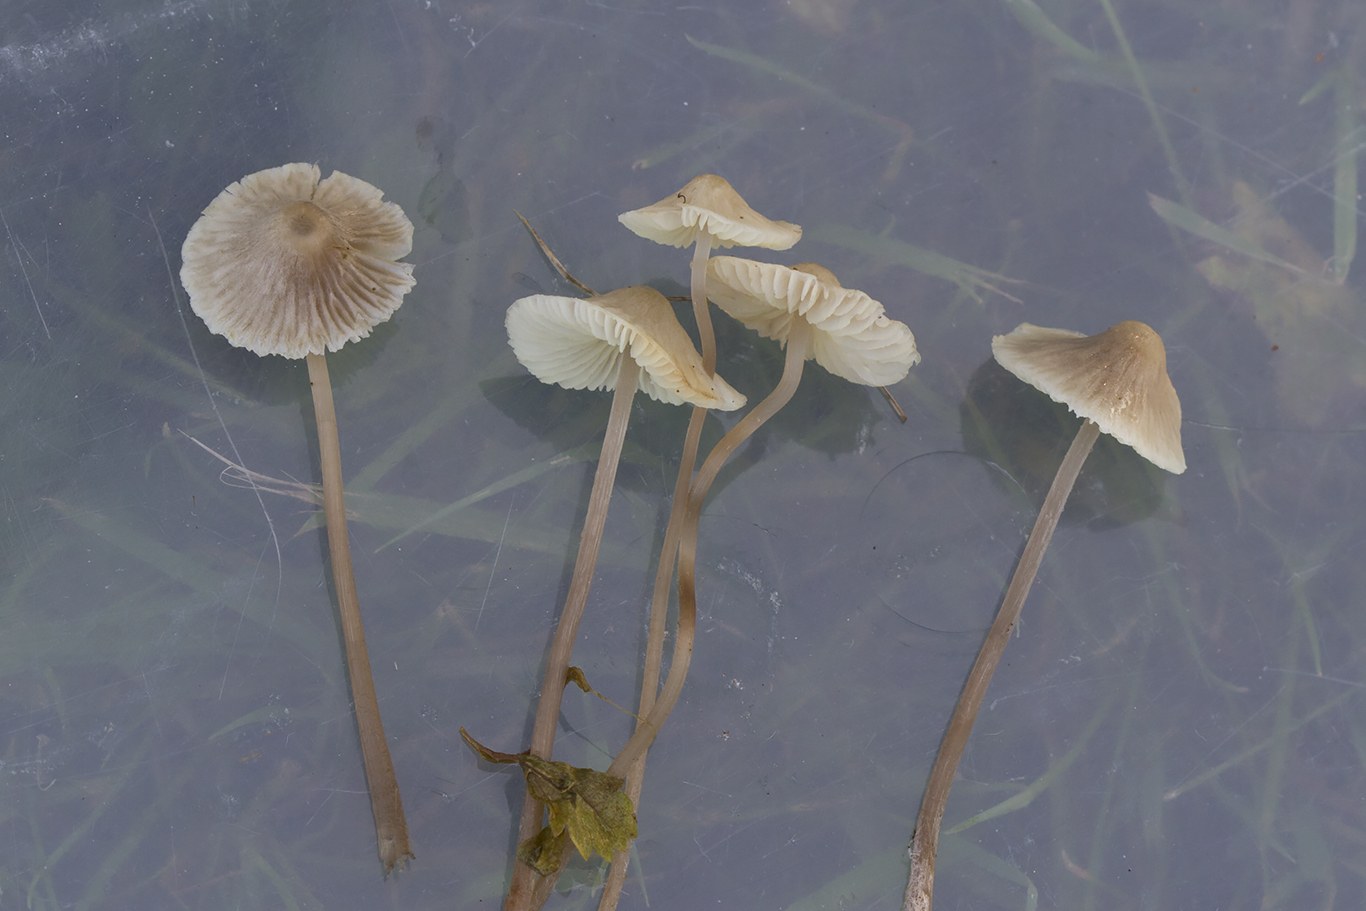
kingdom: Fungi
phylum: Basidiomycota
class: Agaricomycetes
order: Agaricales
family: Mycenaceae
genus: Mycena
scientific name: Mycena flavescens
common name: grågul huesvamp
